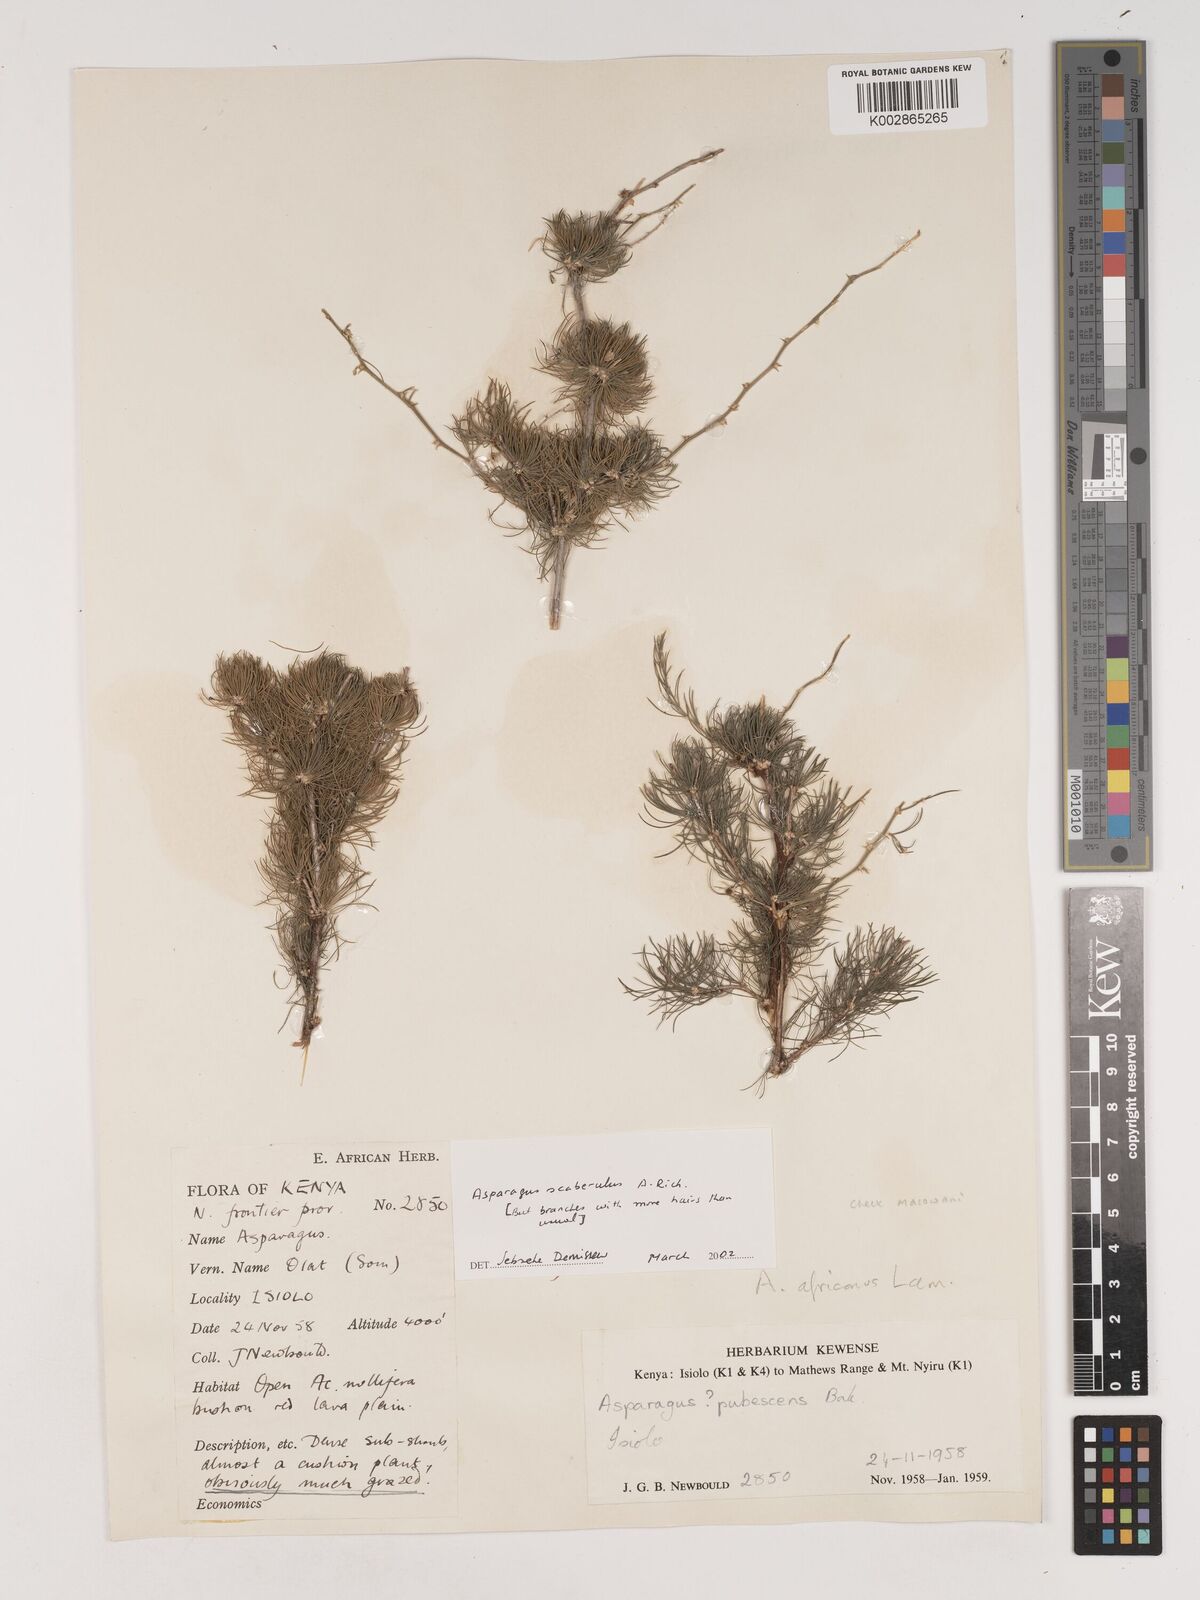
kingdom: Plantae
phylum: Tracheophyta
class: Liliopsida
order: Asparagales
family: Asparagaceae
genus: Asparagus
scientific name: Asparagus scaberulus
